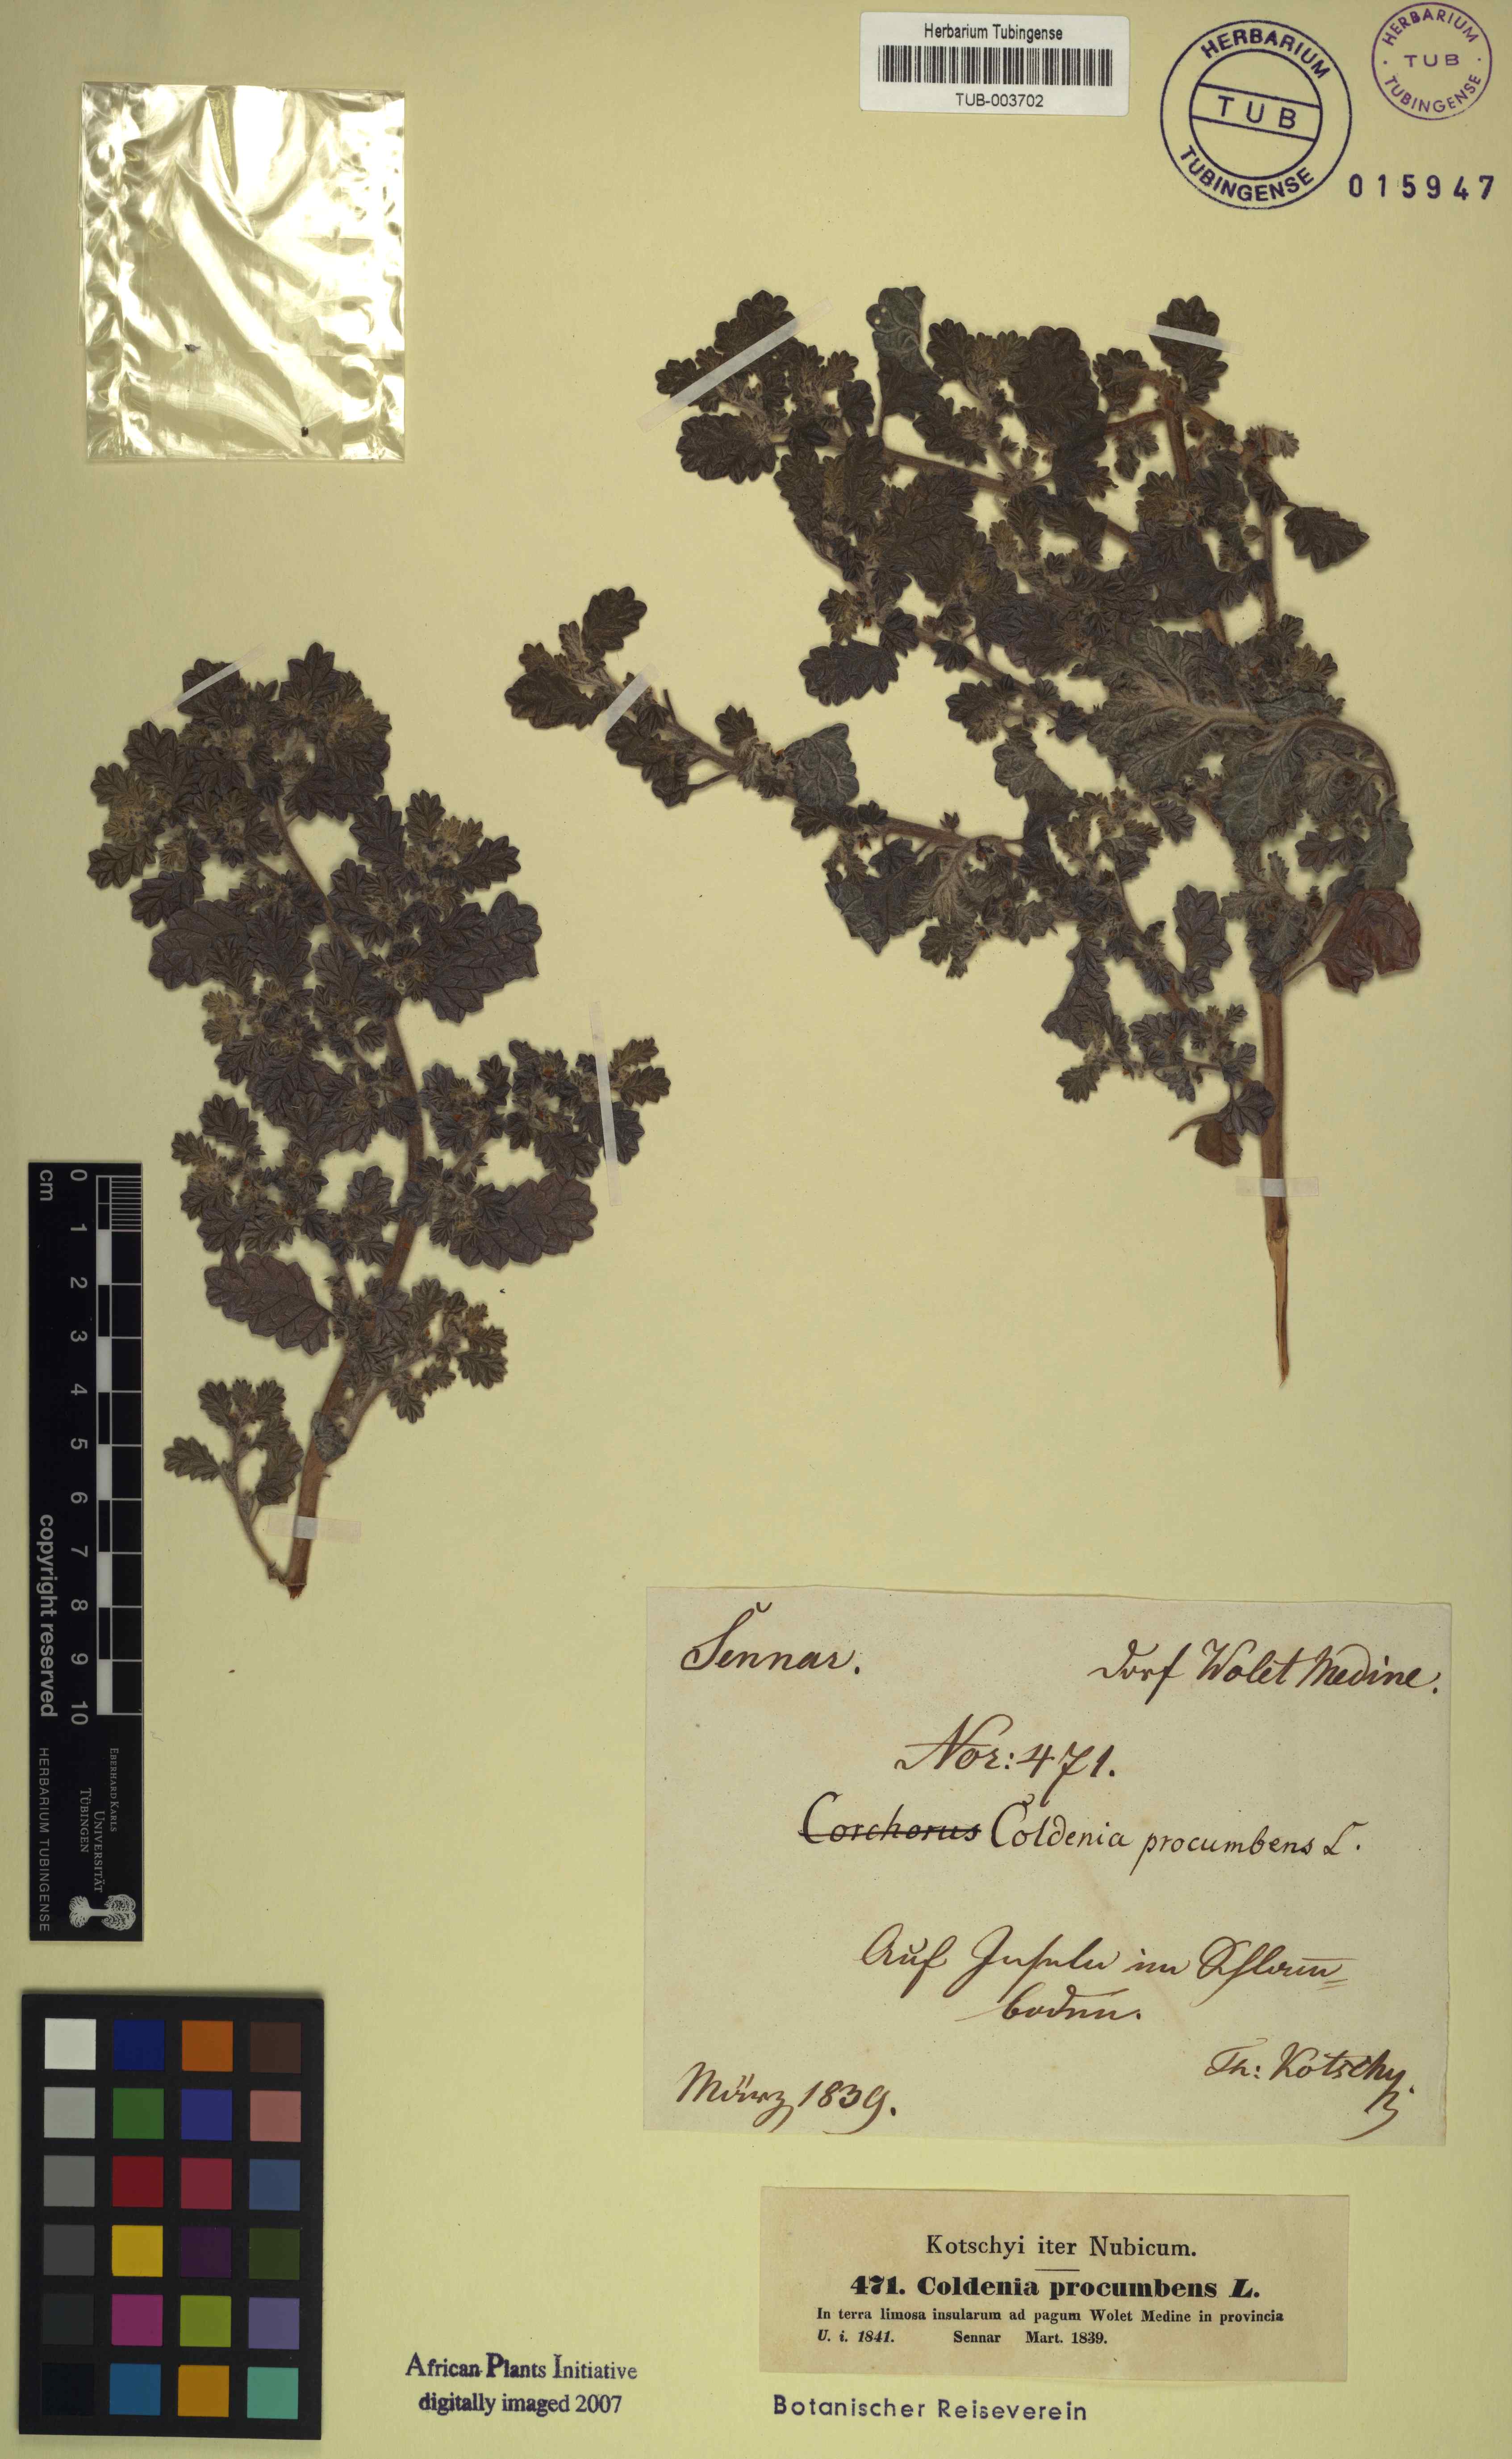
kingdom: Plantae
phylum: Tracheophyta
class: Magnoliopsida
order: Boraginales
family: Coldeniaceae
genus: Coldenia
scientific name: Coldenia procumbens
